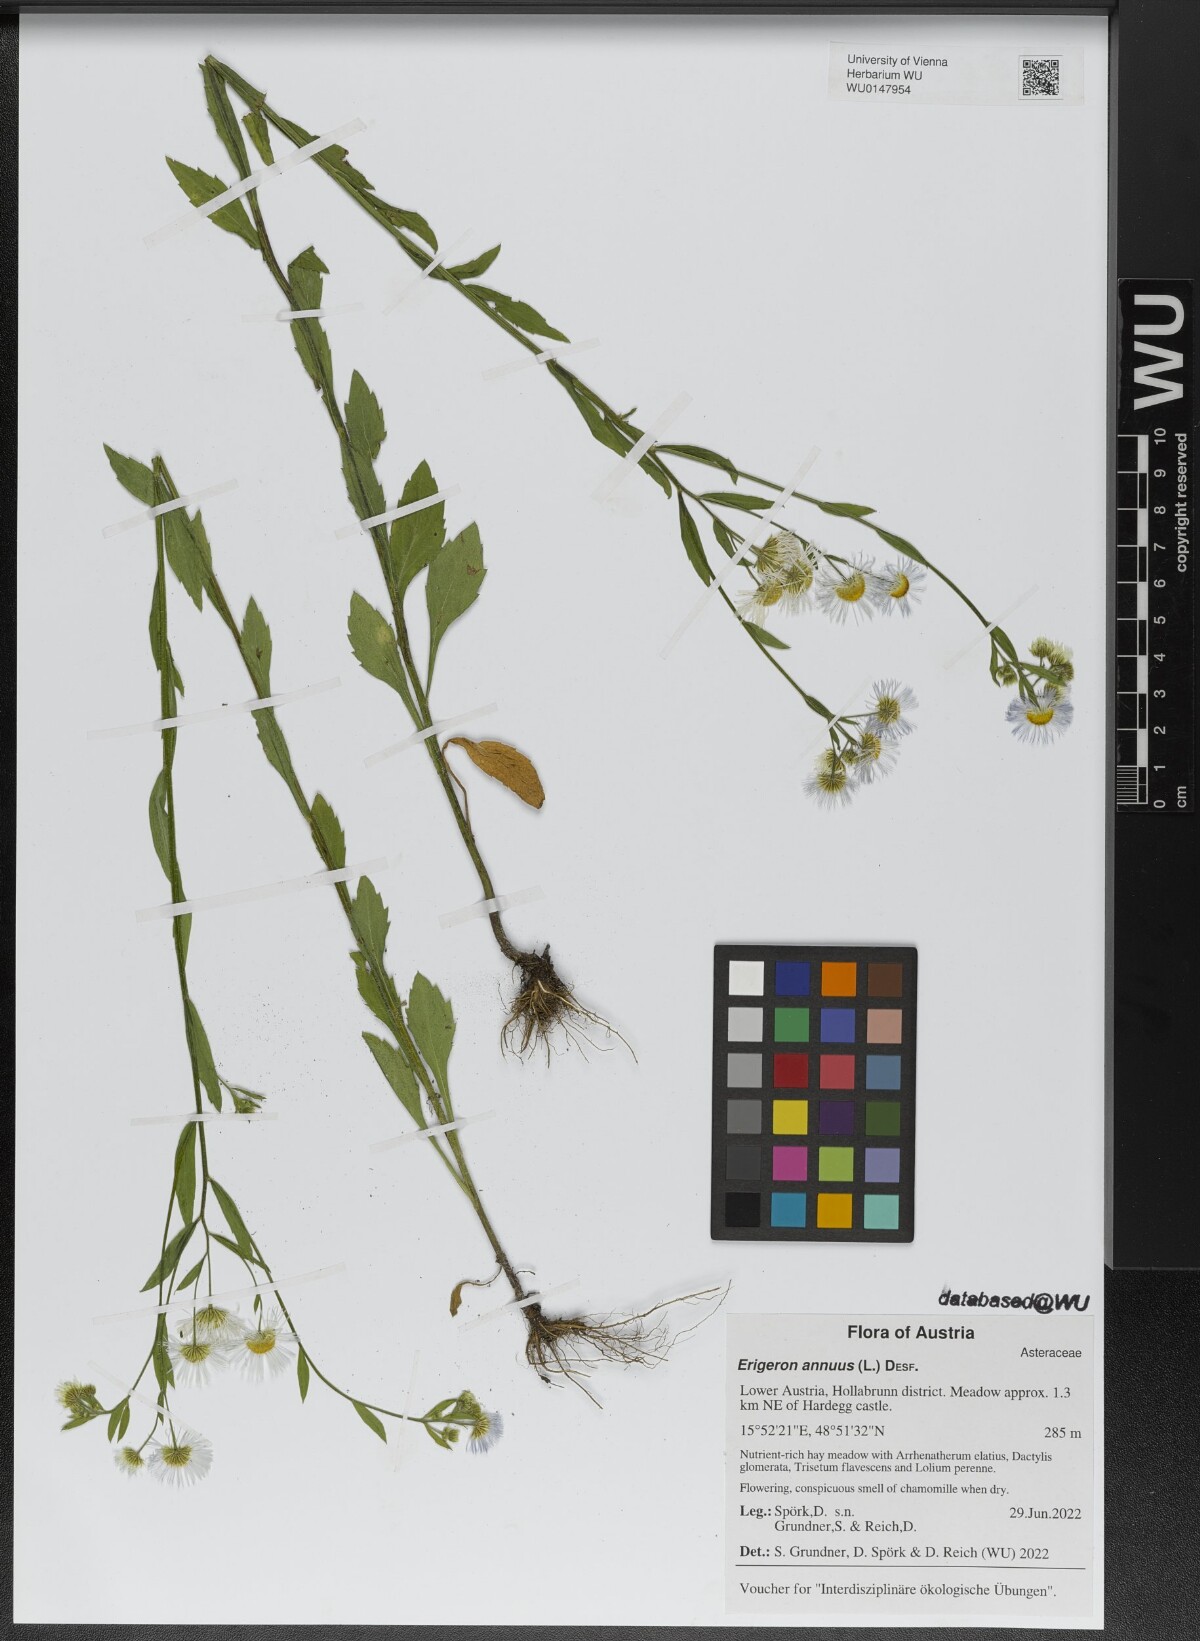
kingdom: Plantae
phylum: Tracheophyta
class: Magnoliopsida
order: Asterales
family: Asteraceae
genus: Erigeron
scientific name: Erigeron annuus
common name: Tall fleabane
